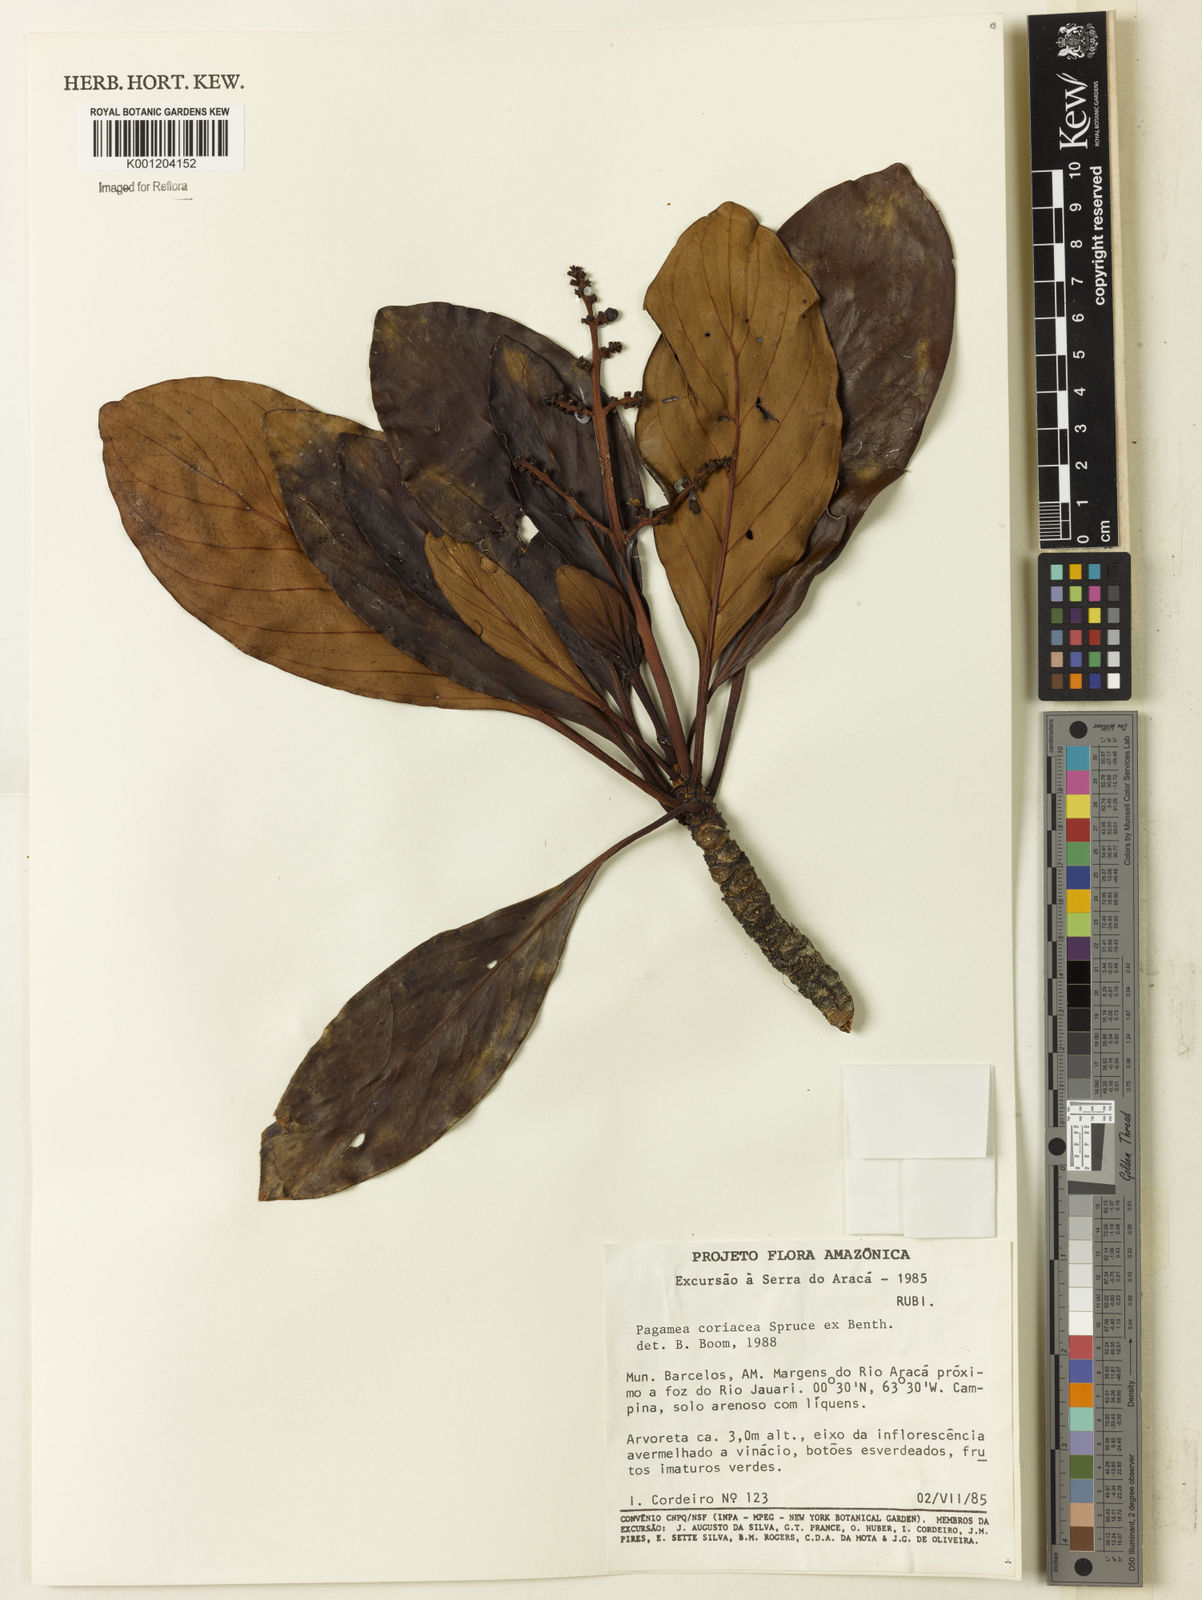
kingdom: Plantae
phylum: Tracheophyta
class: Magnoliopsida
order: Gentianales
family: Rubiaceae
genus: Pagamea
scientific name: Pagamea coriacea
